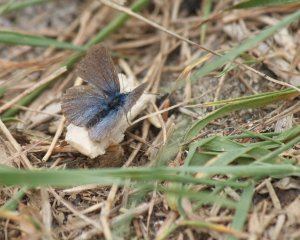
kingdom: Animalia
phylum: Arthropoda
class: Insecta
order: Lepidoptera
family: Lycaenidae
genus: Glaucopsyche
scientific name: Glaucopsyche lygdamus
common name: Silvery Blue
